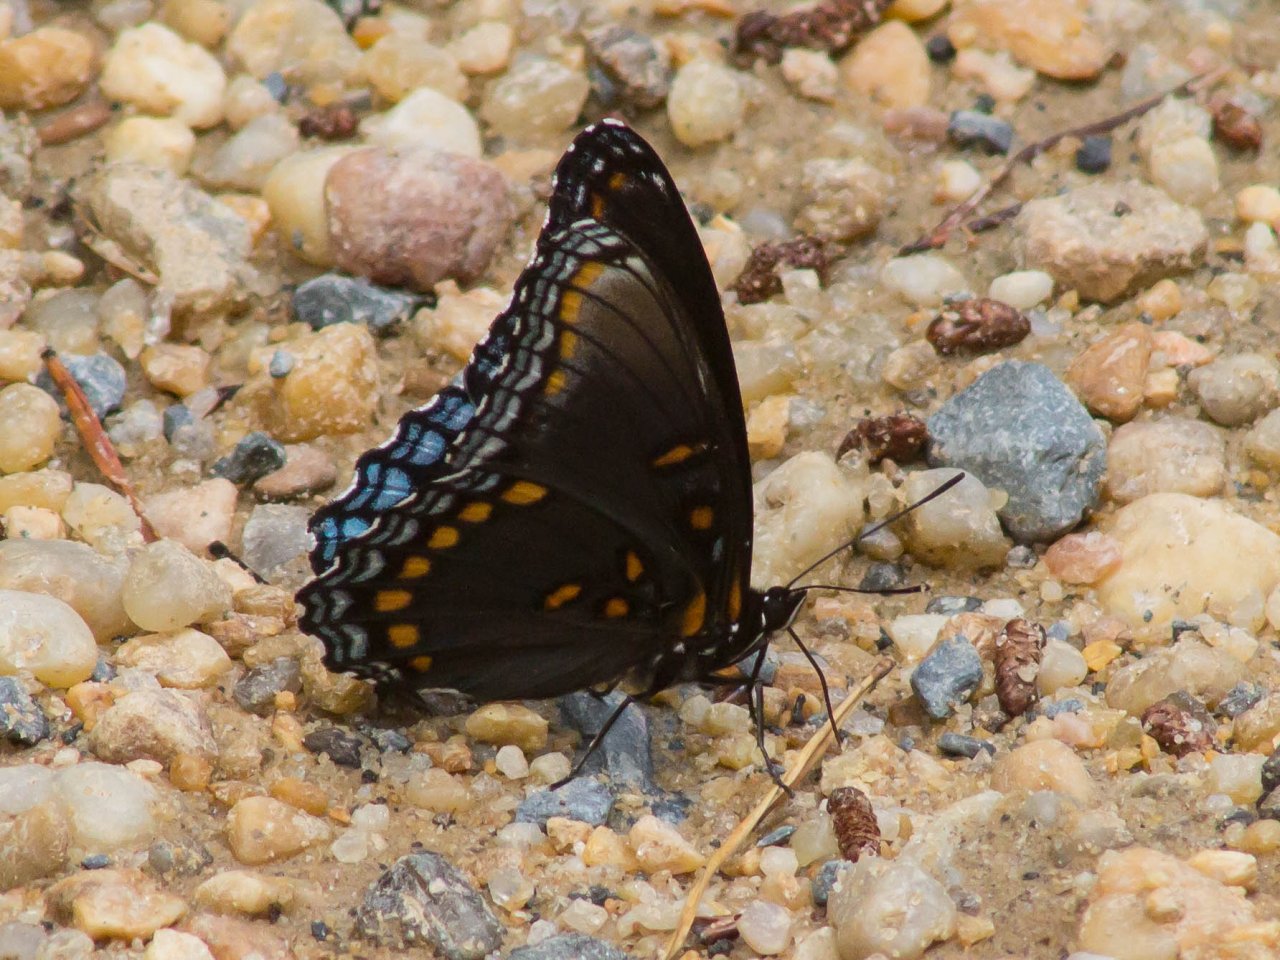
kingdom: Animalia
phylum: Arthropoda
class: Insecta
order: Lepidoptera
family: Nymphalidae
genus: Limenitis
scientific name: Limenitis astyanax
